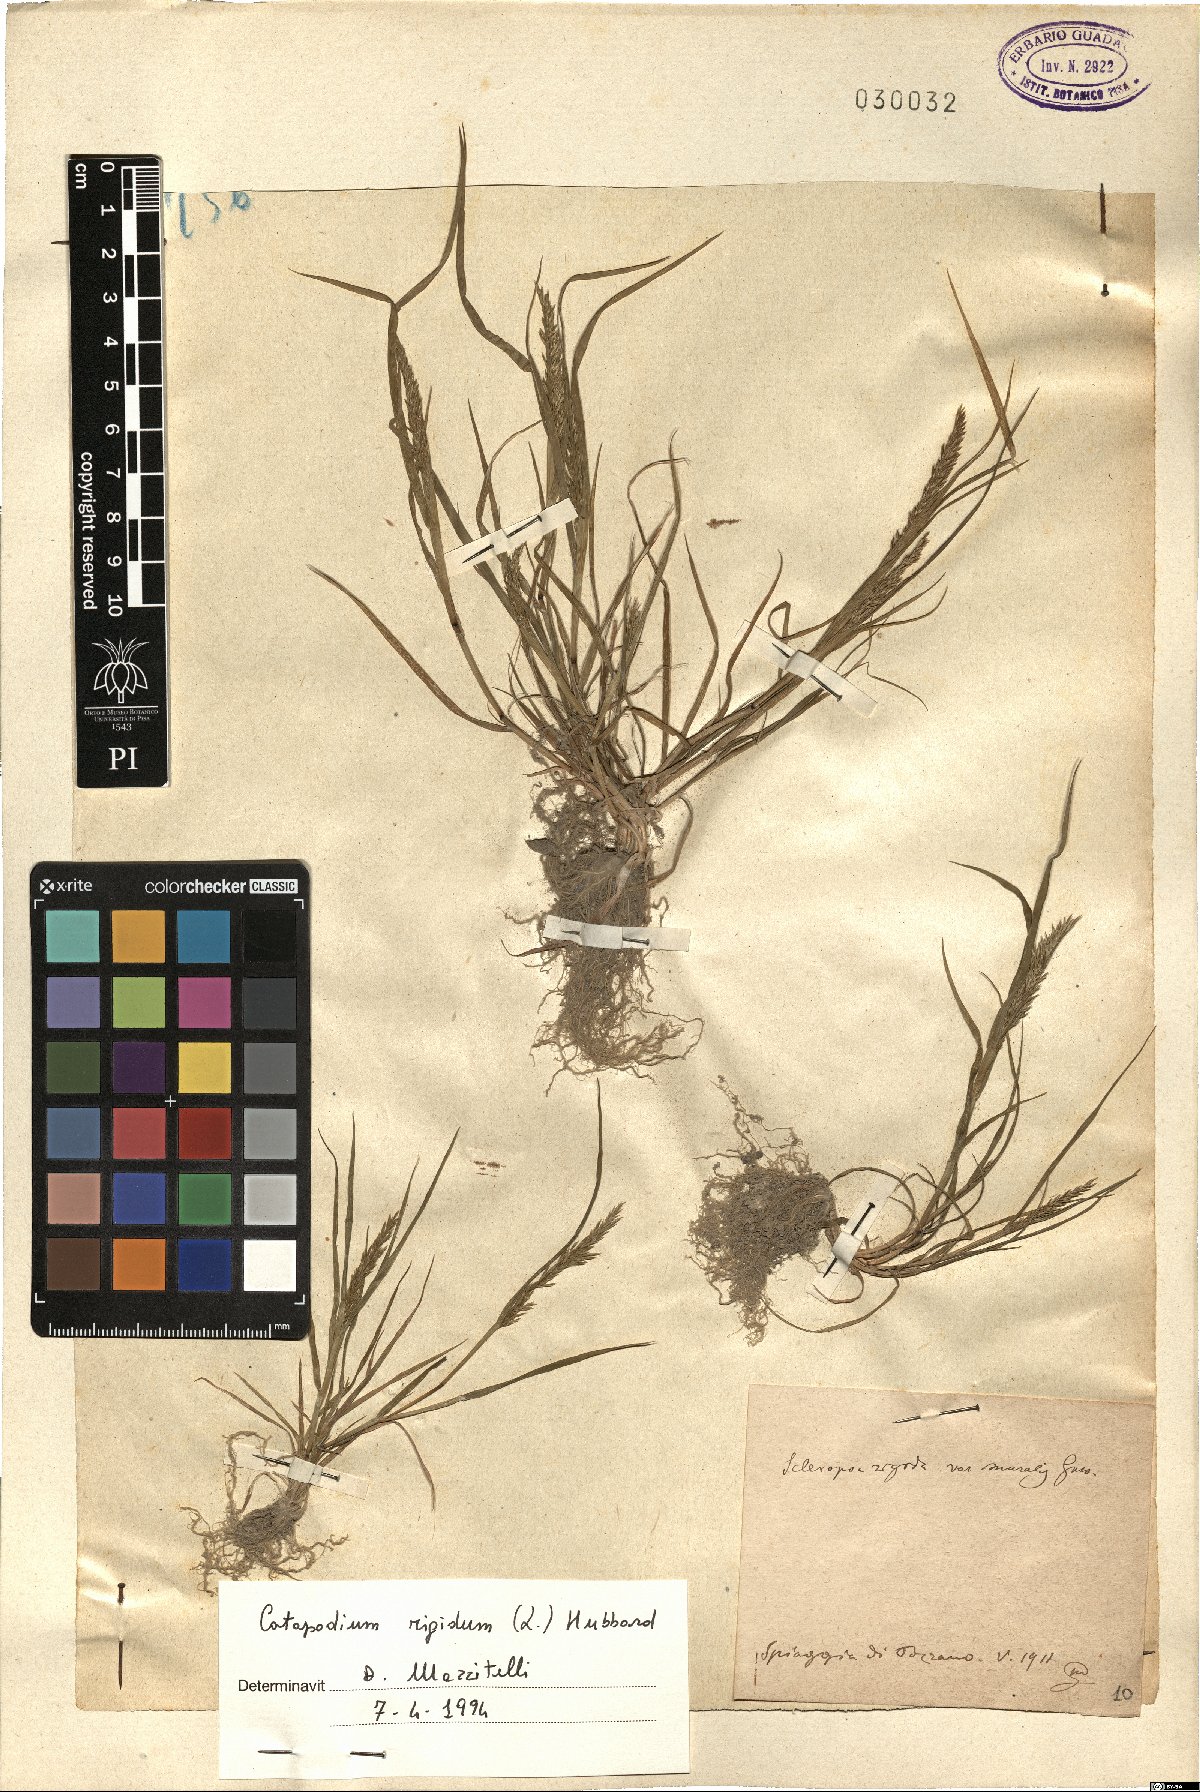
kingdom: Plantae
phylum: Tracheophyta
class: Liliopsida
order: Poales
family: Poaceae
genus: Catapodium
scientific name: Catapodium rigidum
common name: Fern-grass
